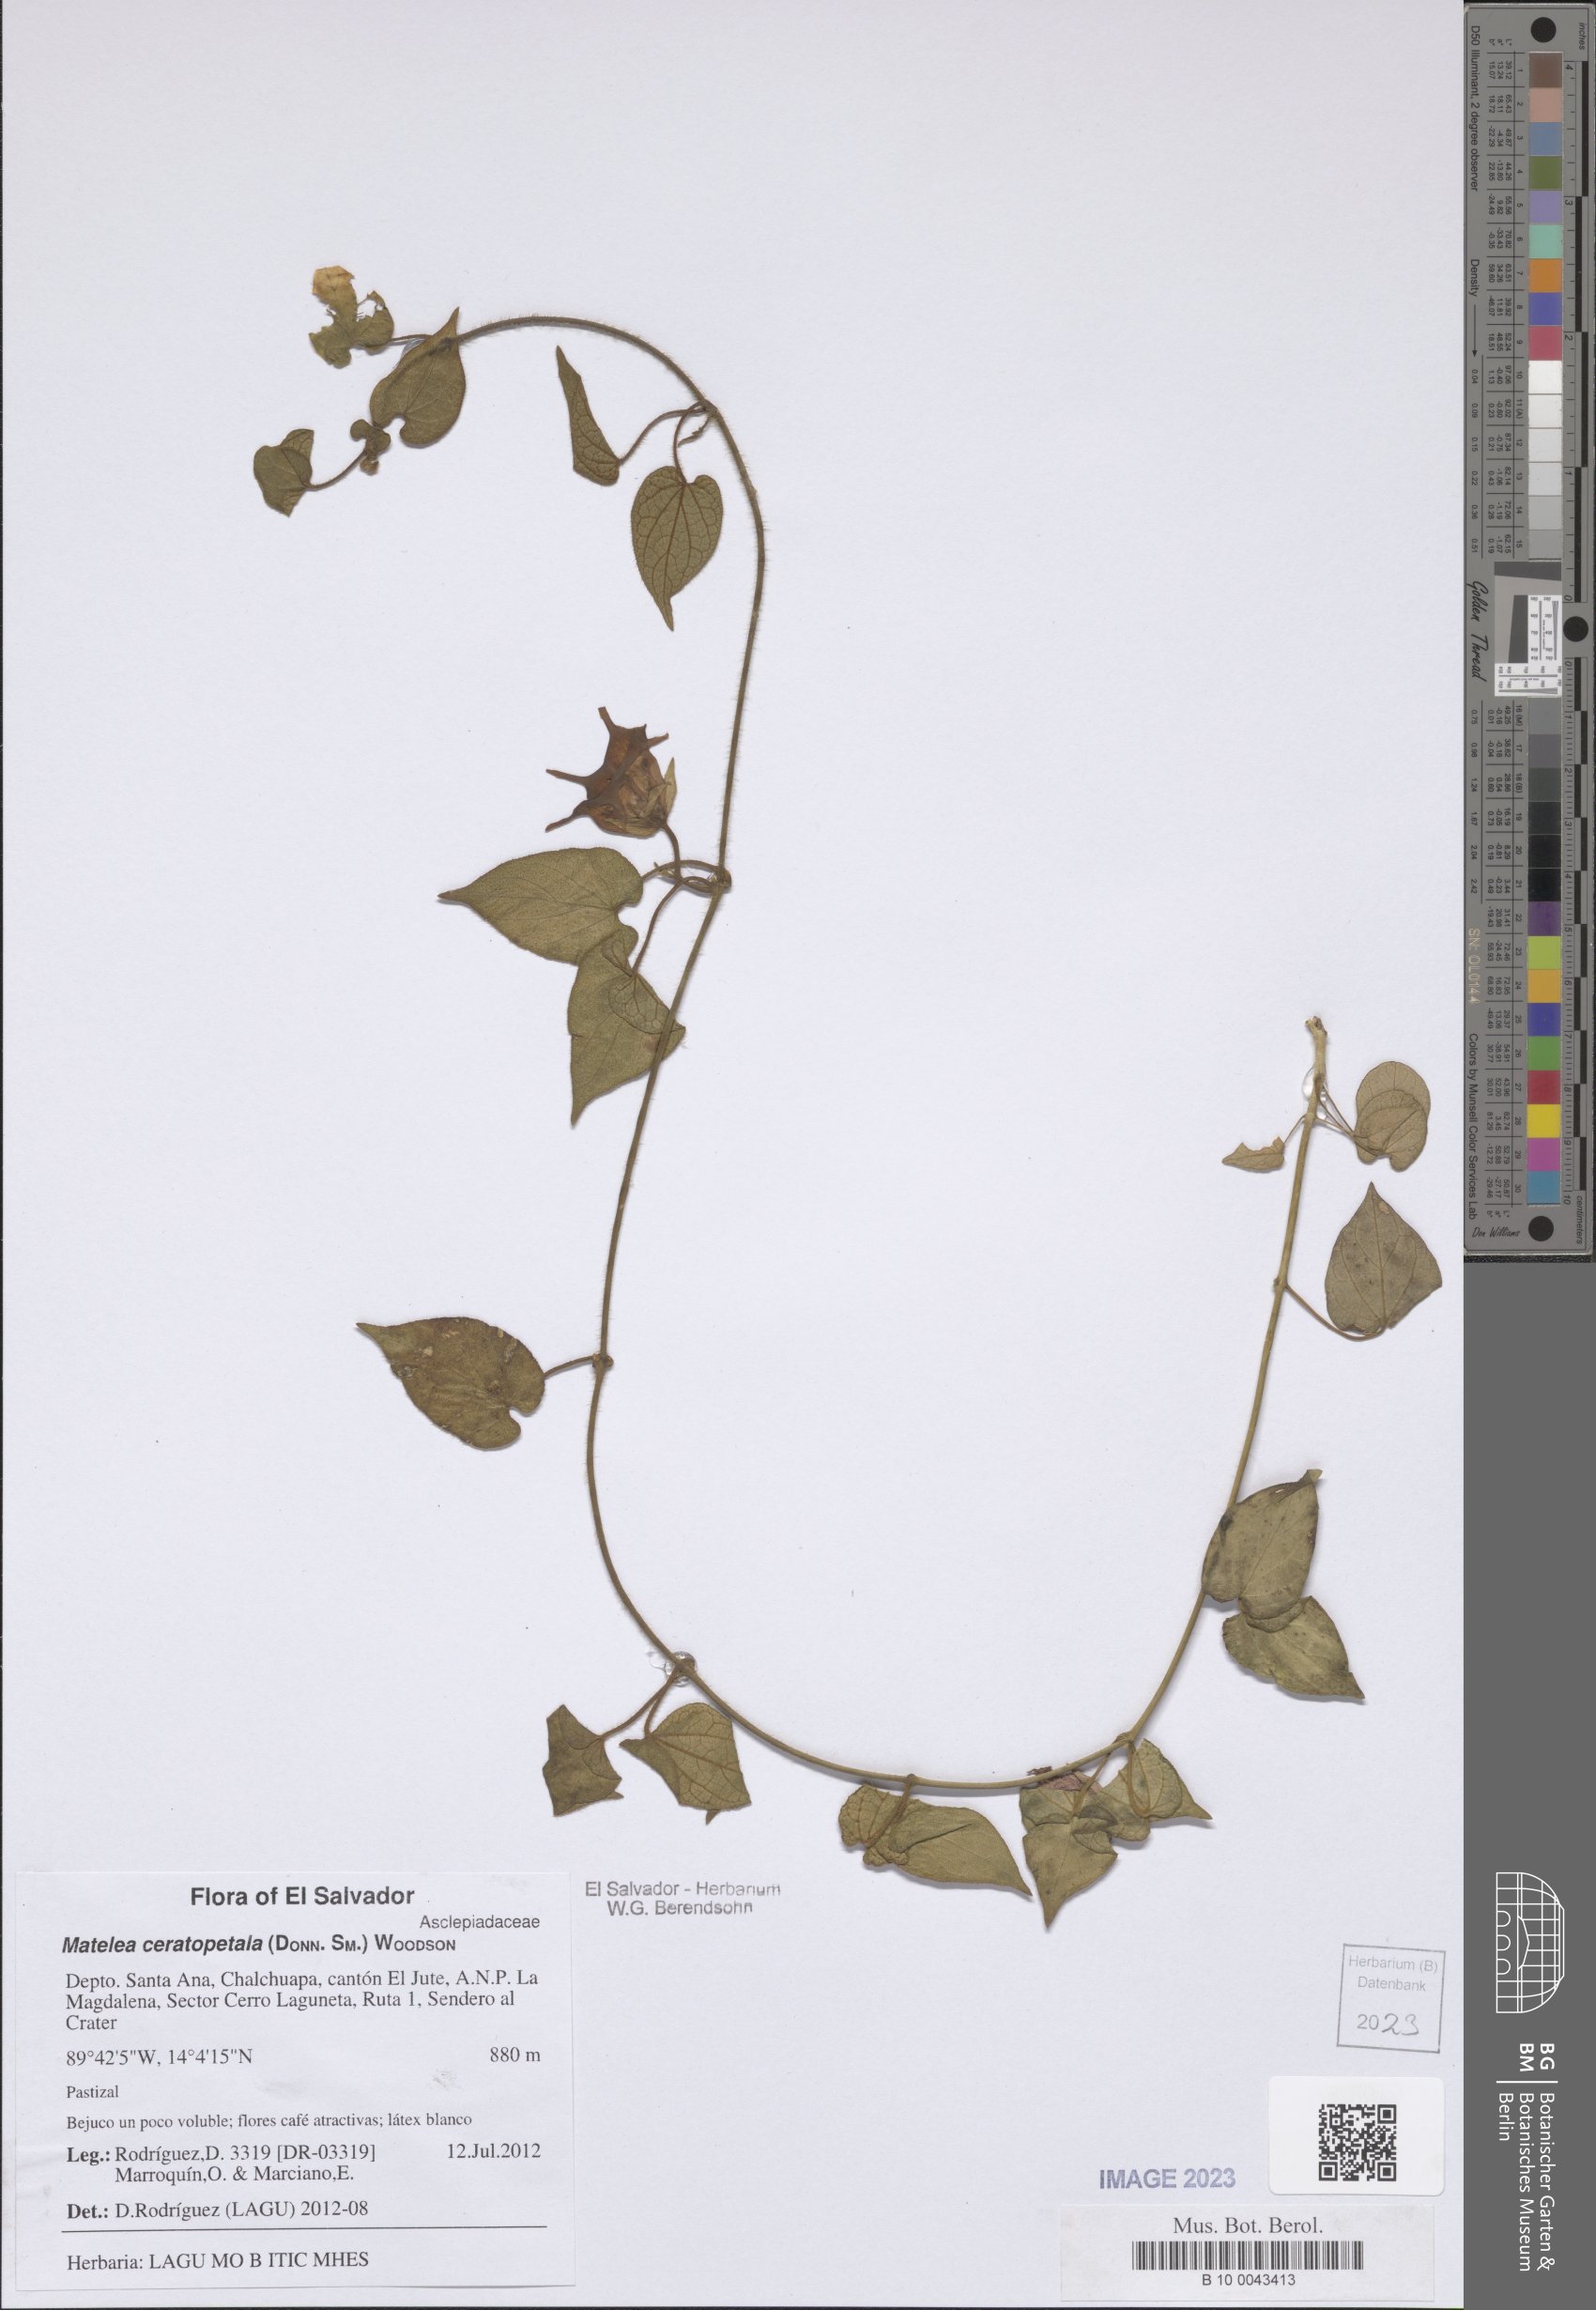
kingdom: Plantae
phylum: Tracheophyta
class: Magnoliopsida
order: Gentianales
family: Apocynaceae
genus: Dictyanthus
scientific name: Dictyanthus ceratopetalus
